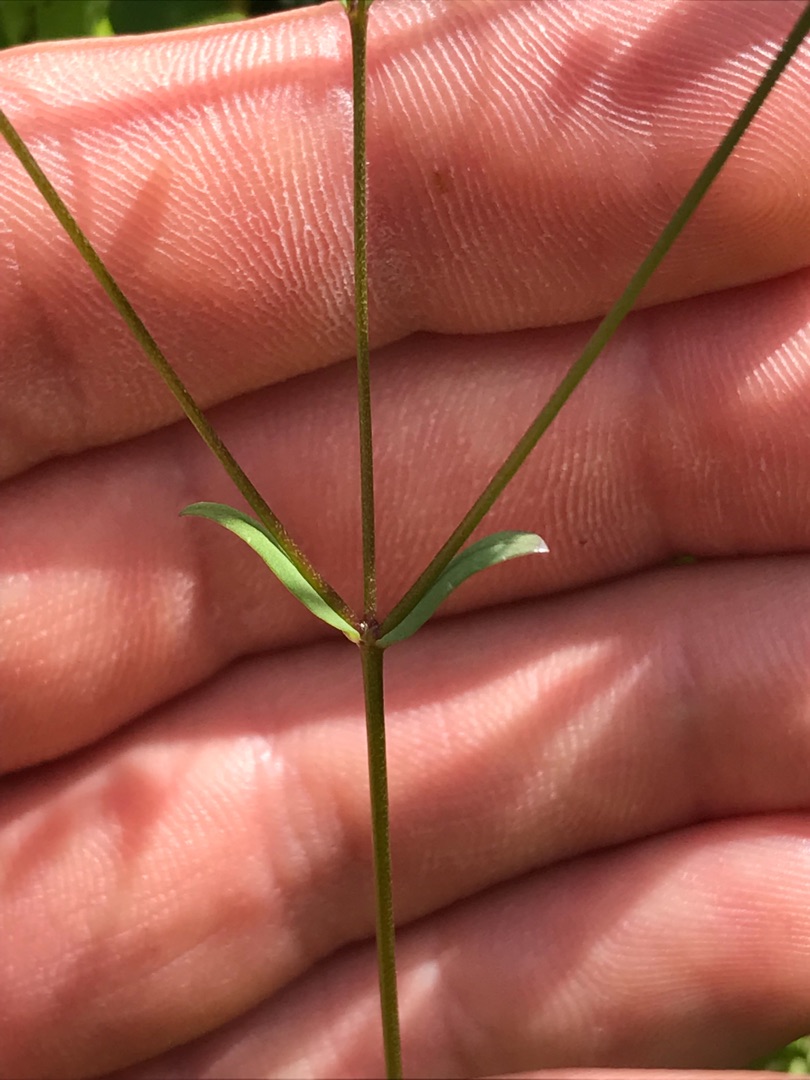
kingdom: Plantae
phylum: Tracheophyta
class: Magnoliopsida
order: Malpighiales
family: Linaceae
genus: Linum
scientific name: Linum catharticum
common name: Vild hør
